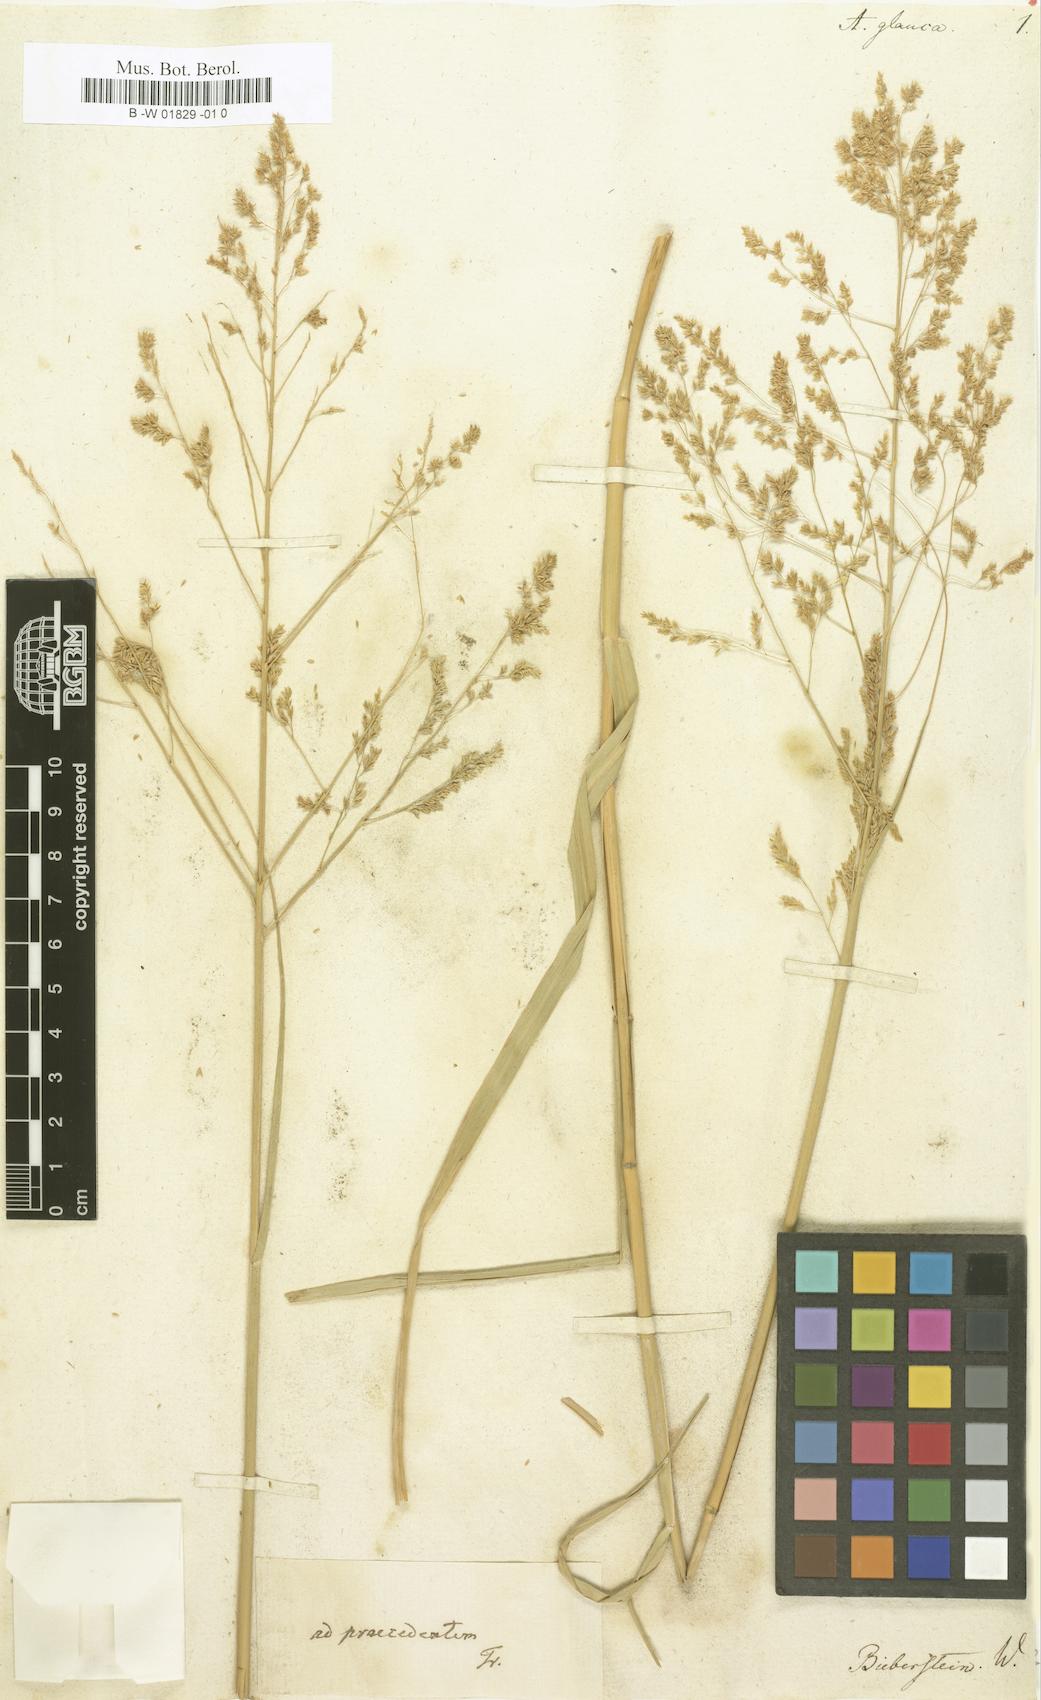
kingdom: Plantae
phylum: Tracheophyta
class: Liliopsida
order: Poales
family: Poaceae
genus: Koeleria
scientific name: Koeleria glauca
